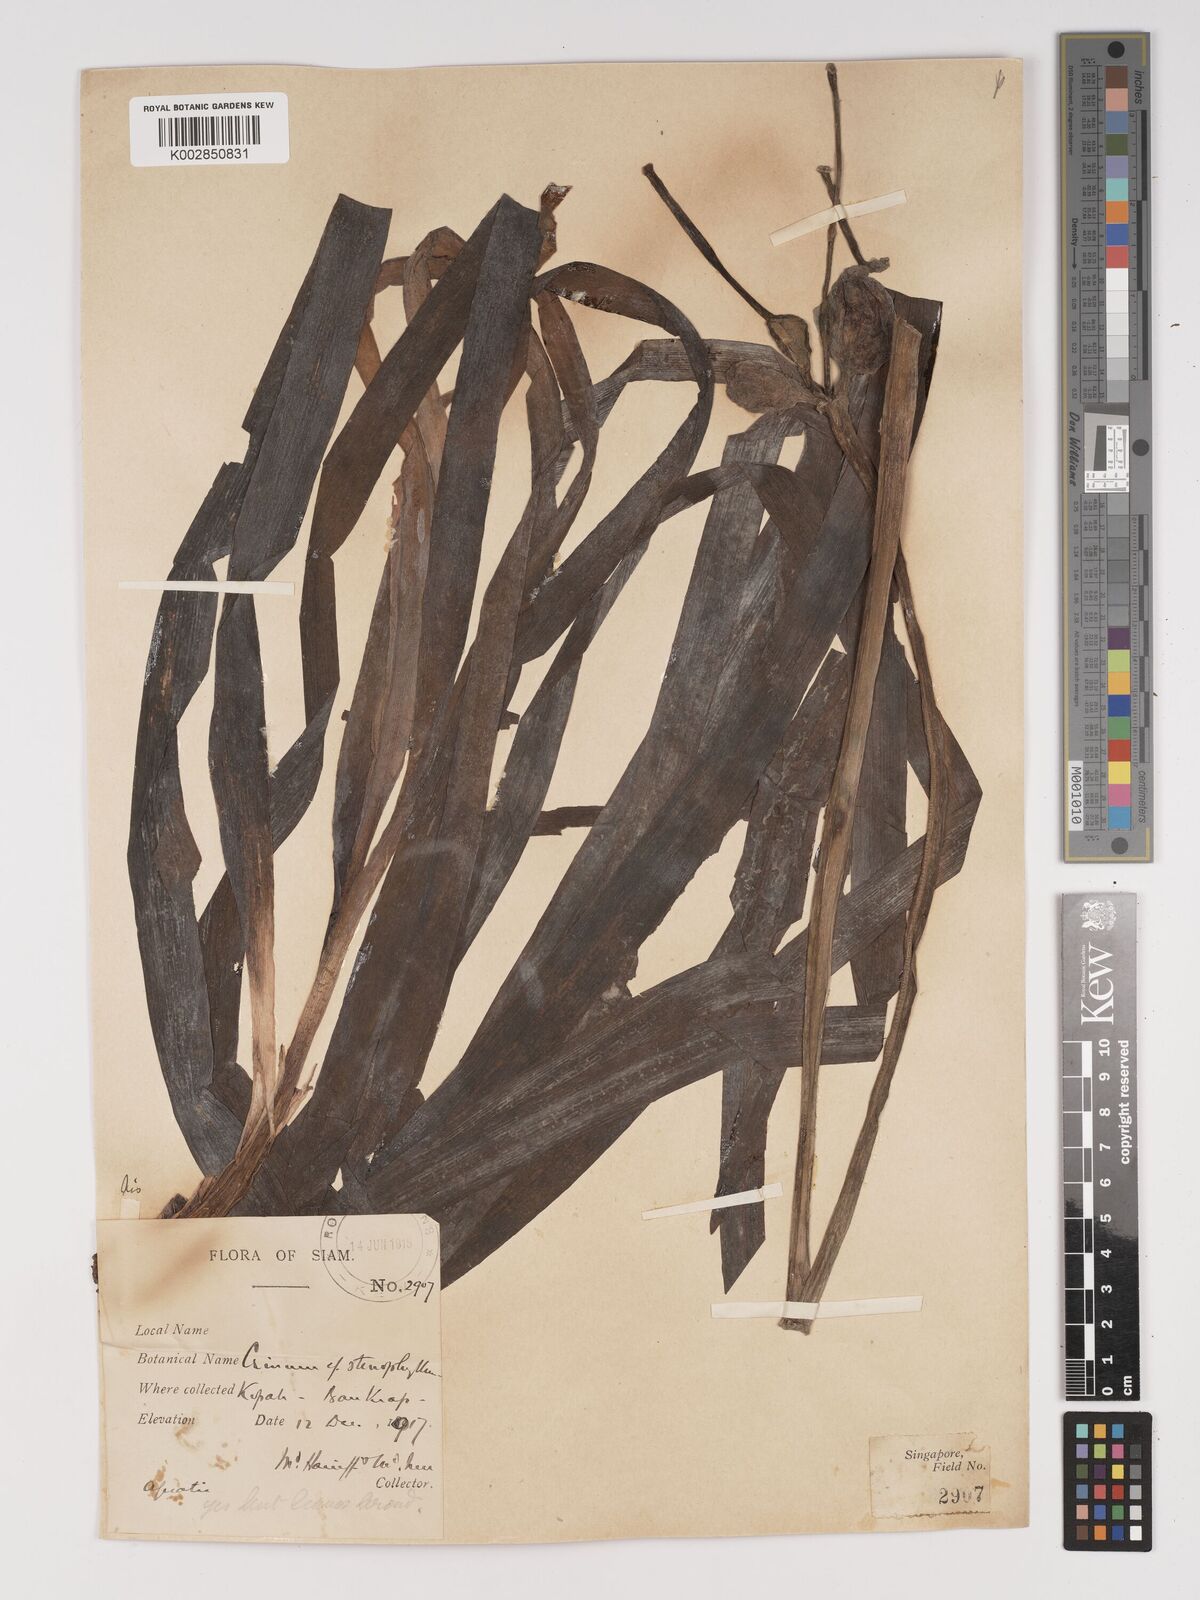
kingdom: Plantae
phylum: Tracheophyta
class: Liliopsida
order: Asparagales
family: Amaryllidaceae
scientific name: Amaryllidaceae
